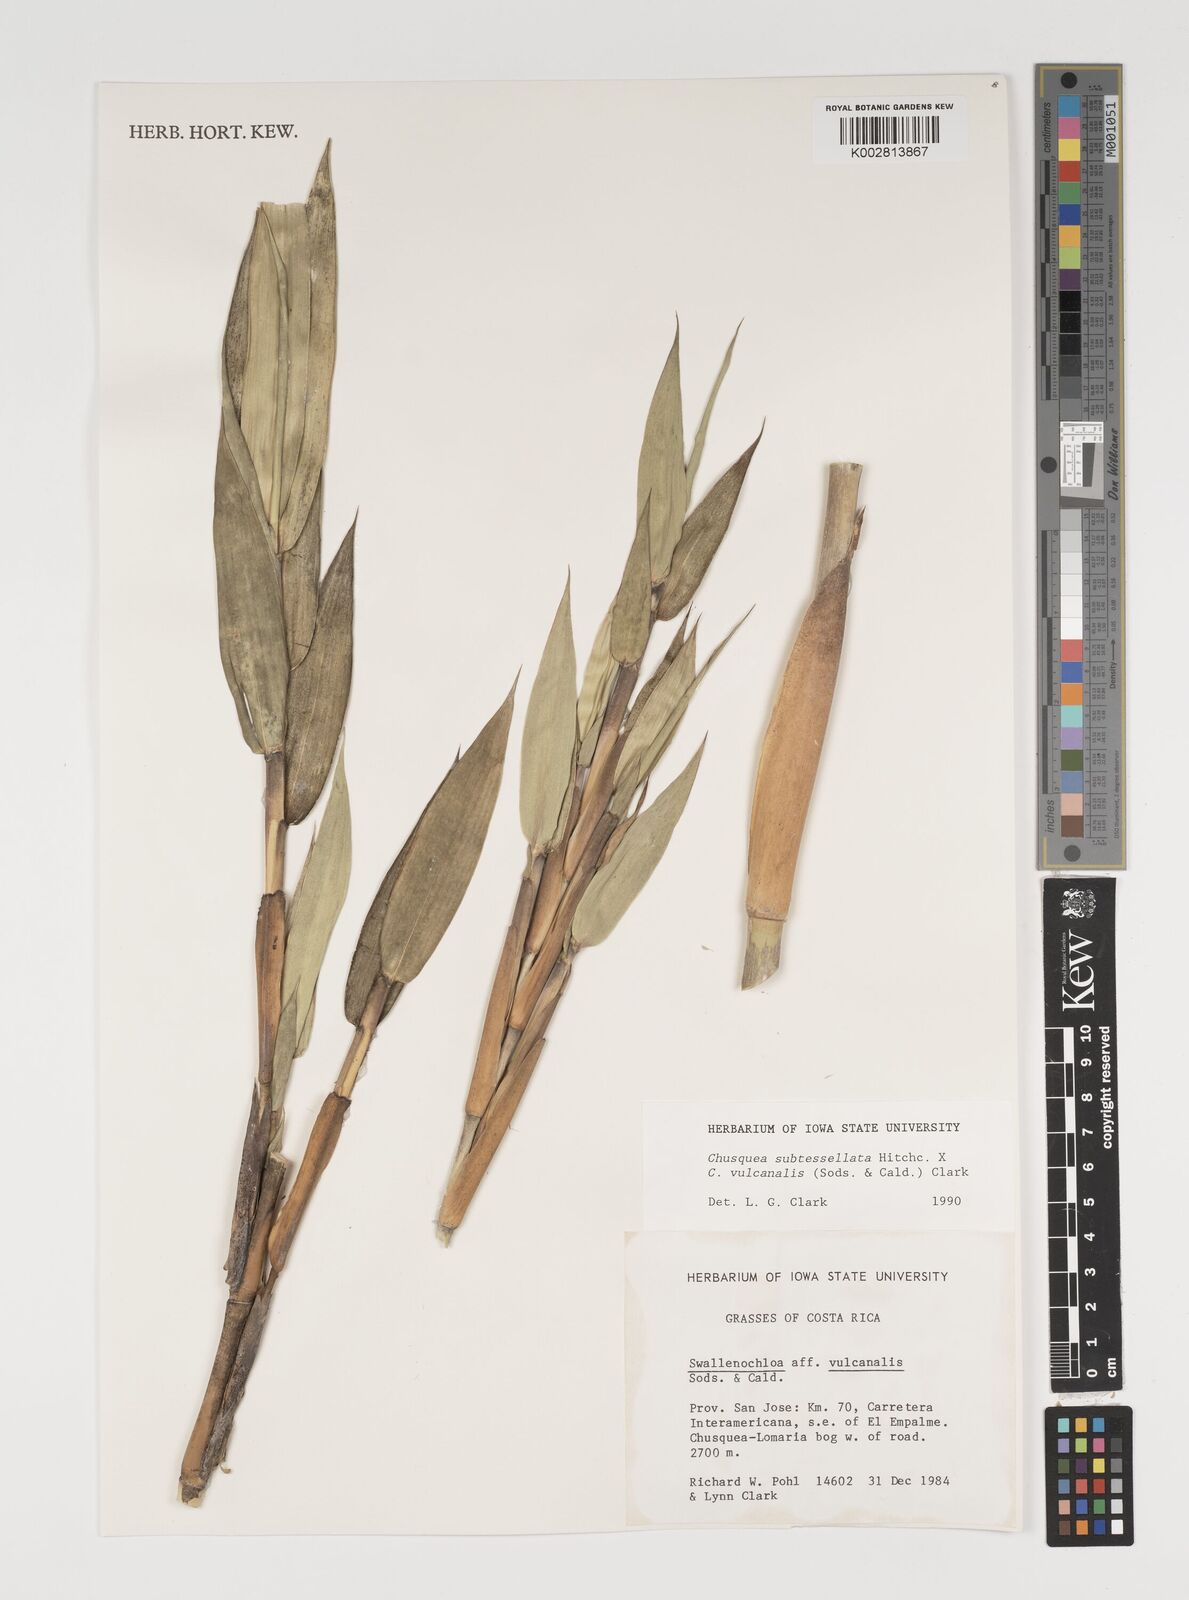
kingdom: Plantae
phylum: Tracheophyta
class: Liliopsida
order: Poales
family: Poaceae
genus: Chusquea
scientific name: Chusquea subtessellata
